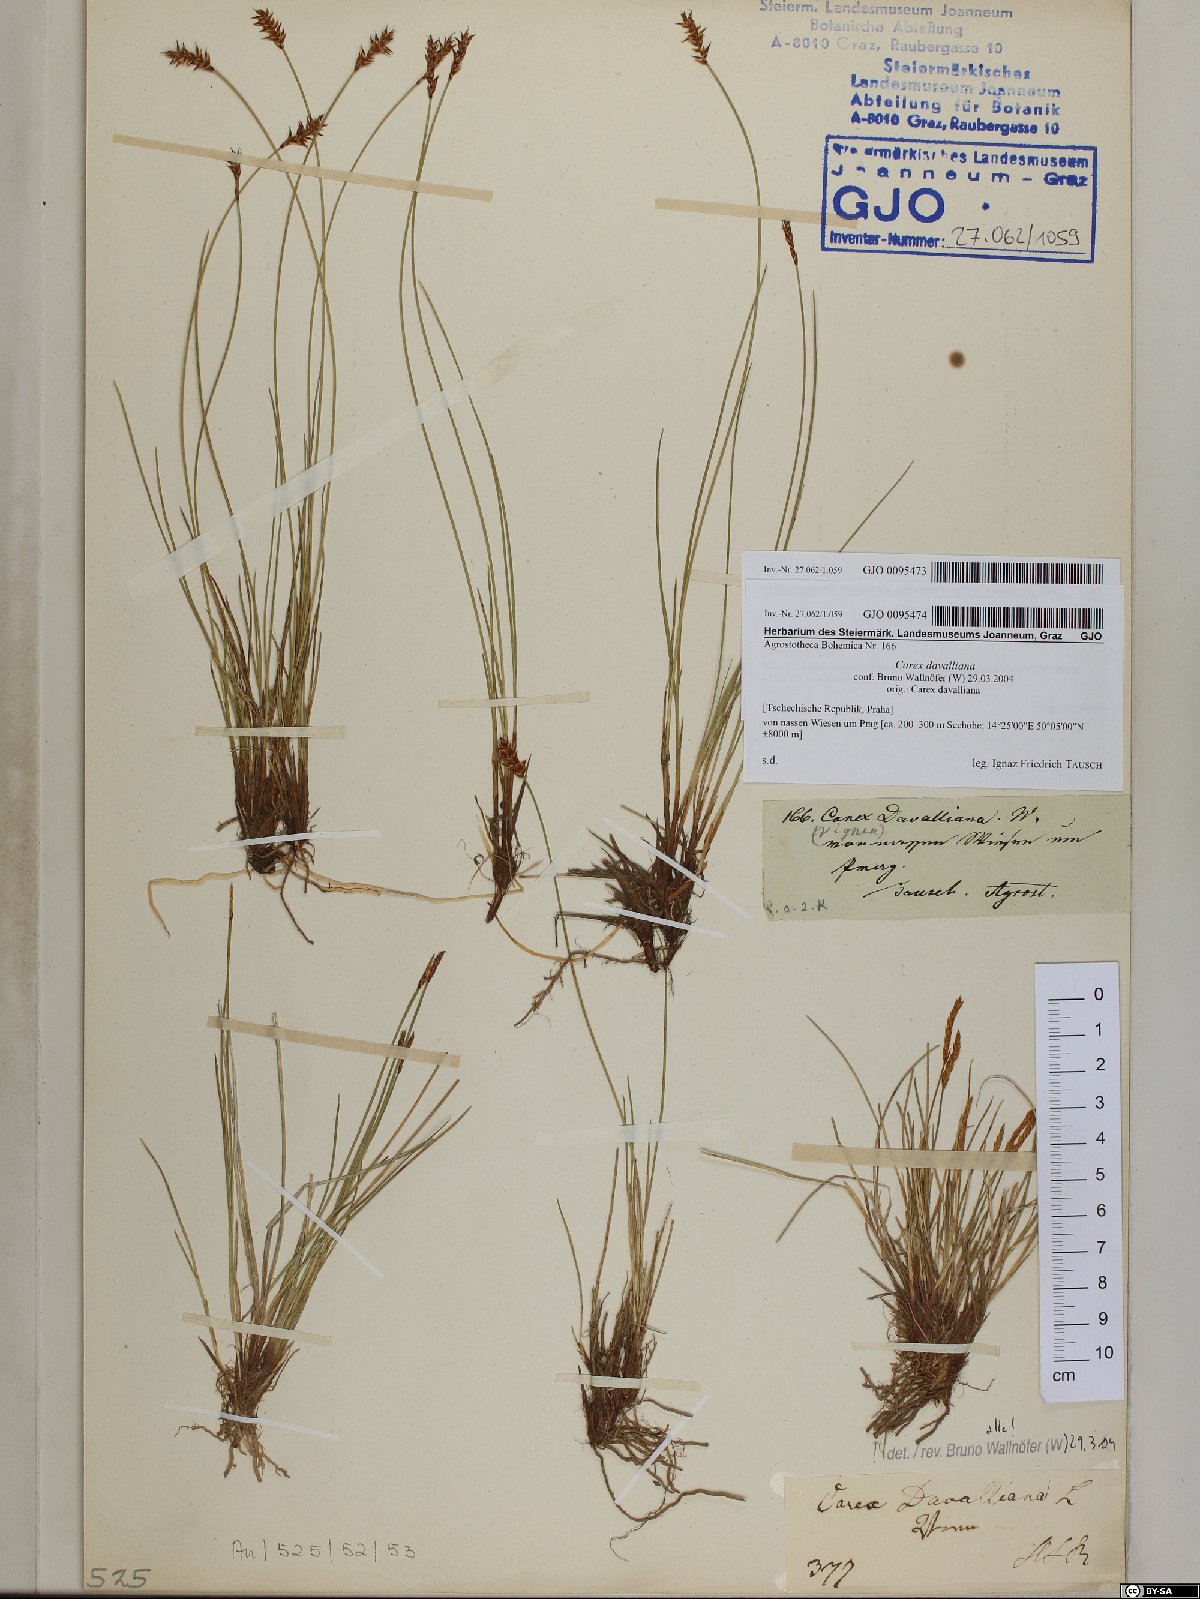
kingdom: Plantae
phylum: Tracheophyta
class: Liliopsida
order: Poales
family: Cyperaceae
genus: Carex
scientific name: Carex davalliana
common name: Davall's sedge
